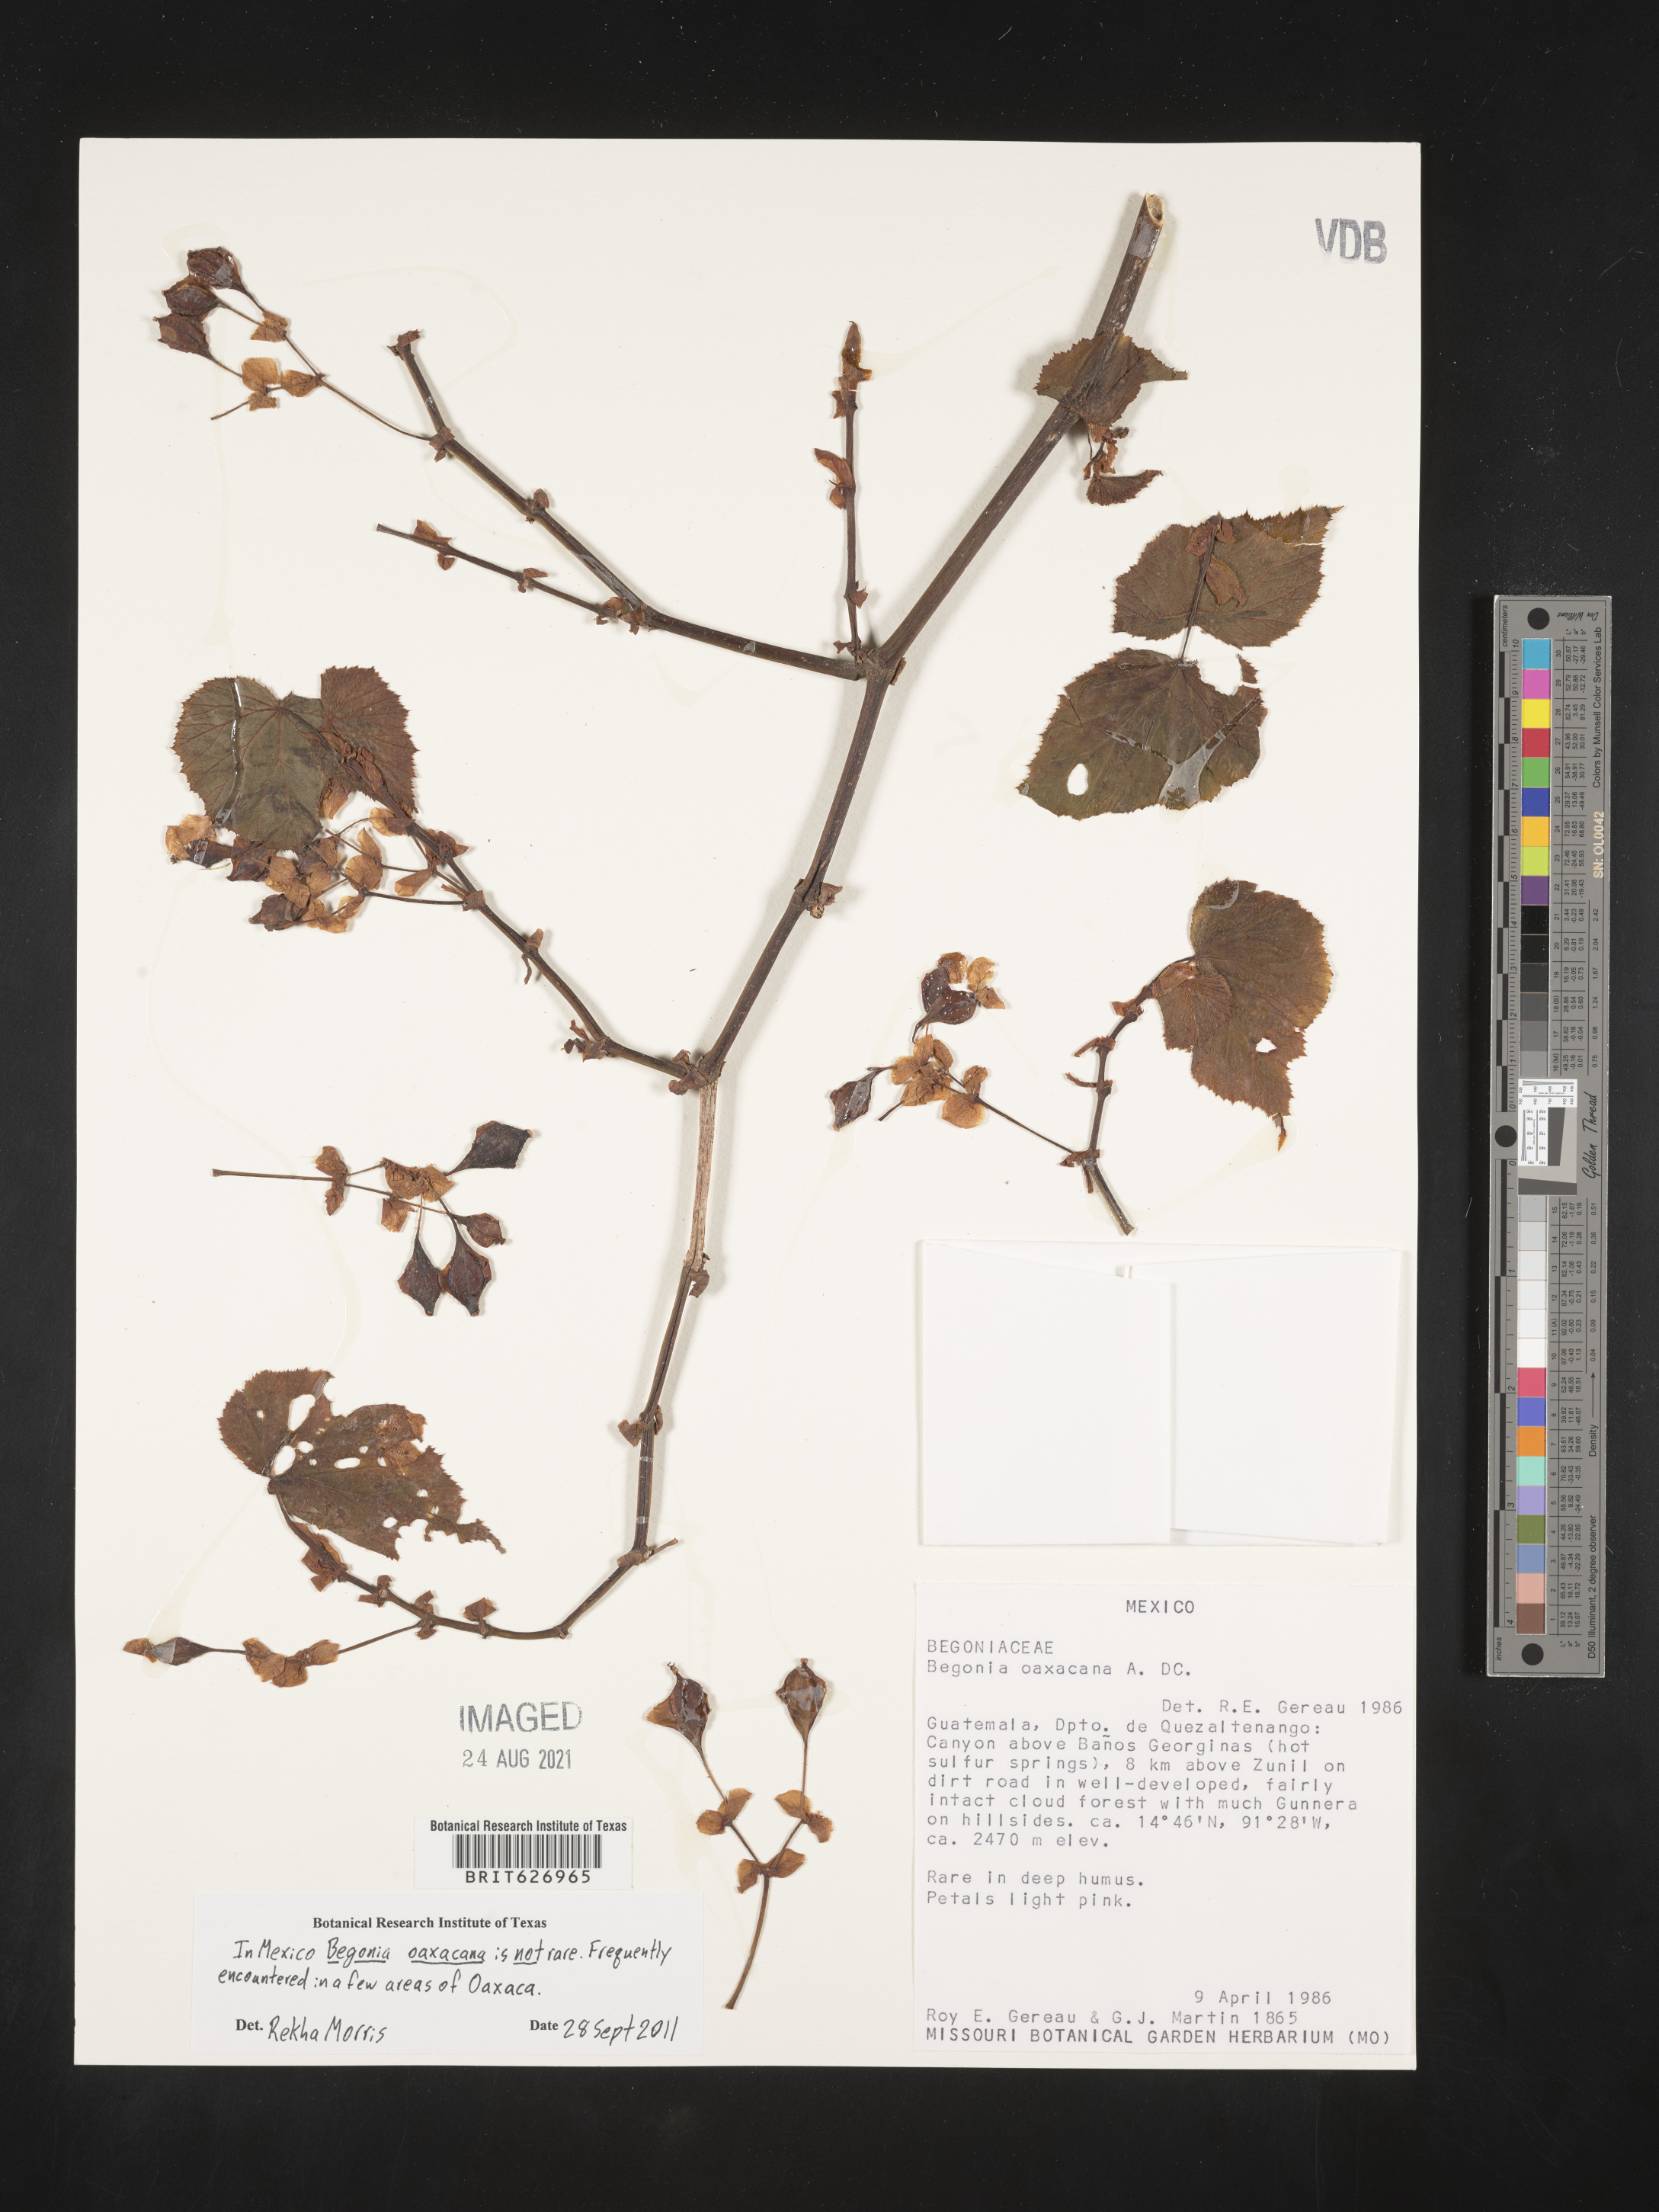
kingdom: Plantae
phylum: Tracheophyta
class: Magnoliopsida
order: Cucurbitales
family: Begoniaceae
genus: Begonia
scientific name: Begonia
